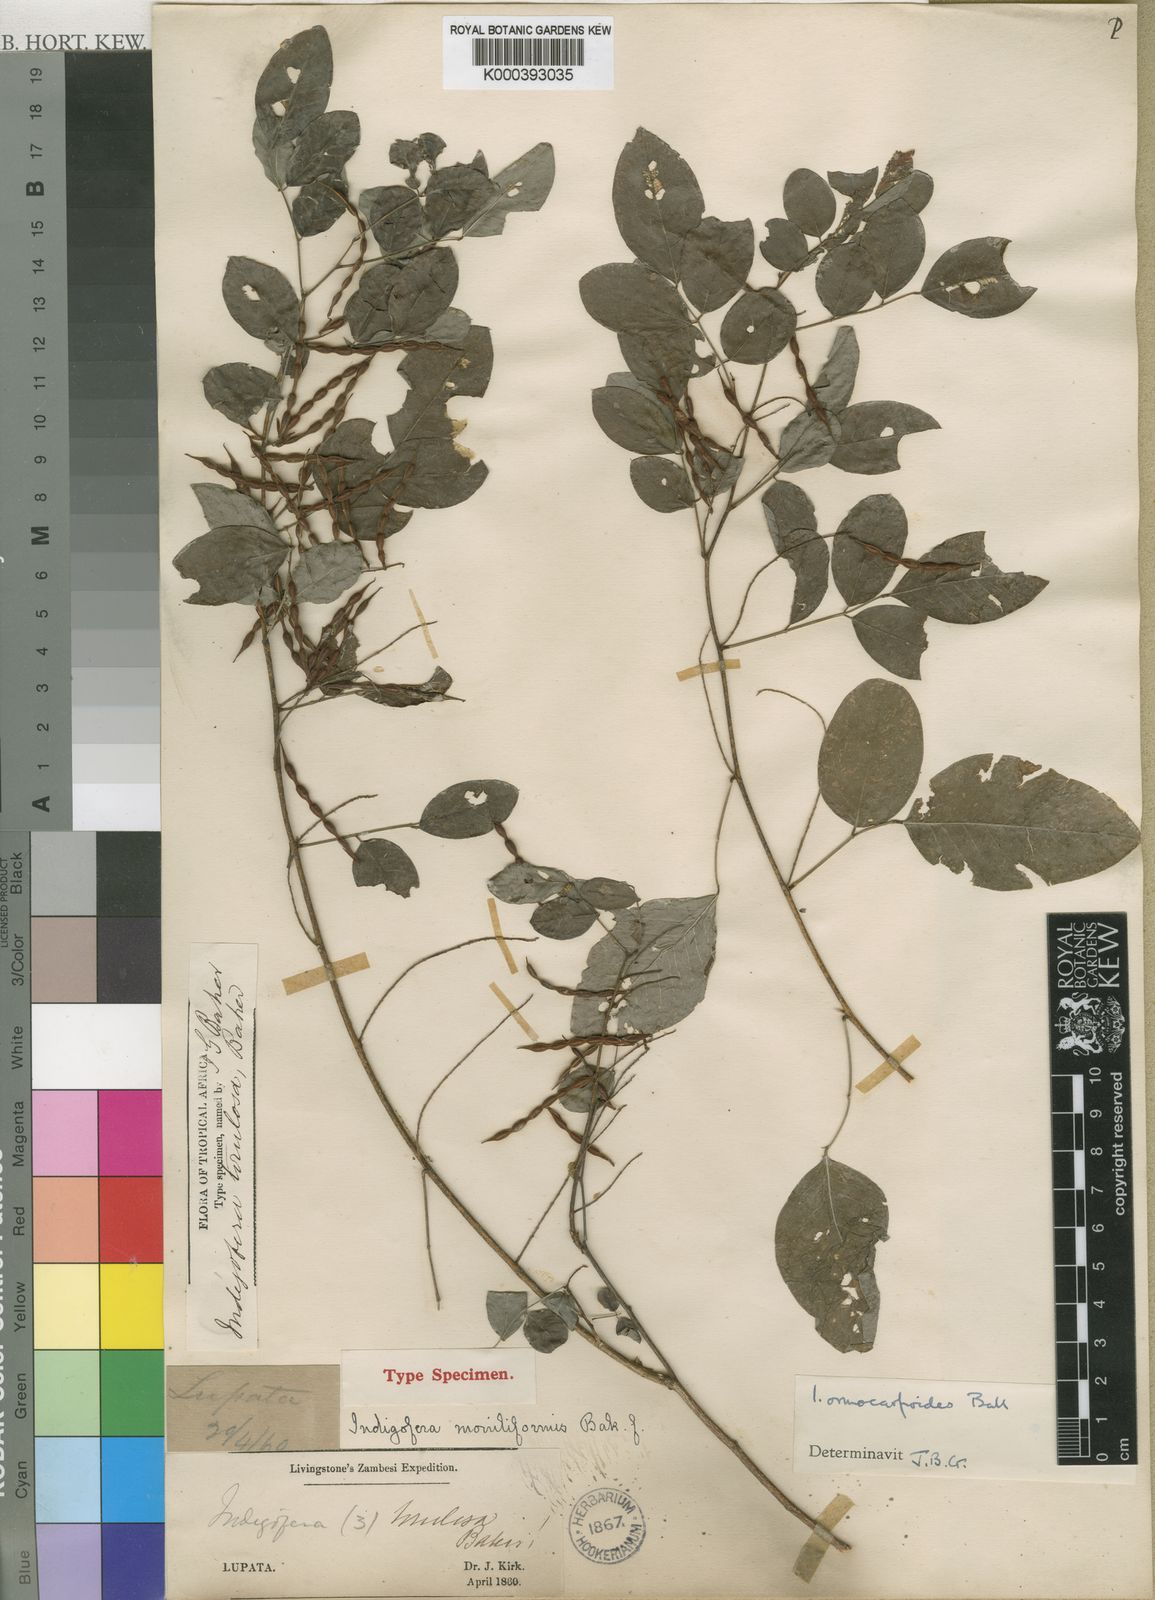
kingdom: Plantae
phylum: Tracheophyta
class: Magnoliopsida
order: Fabales
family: Fabaceae
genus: Indigofera
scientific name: Indigofera ormocarpoides
